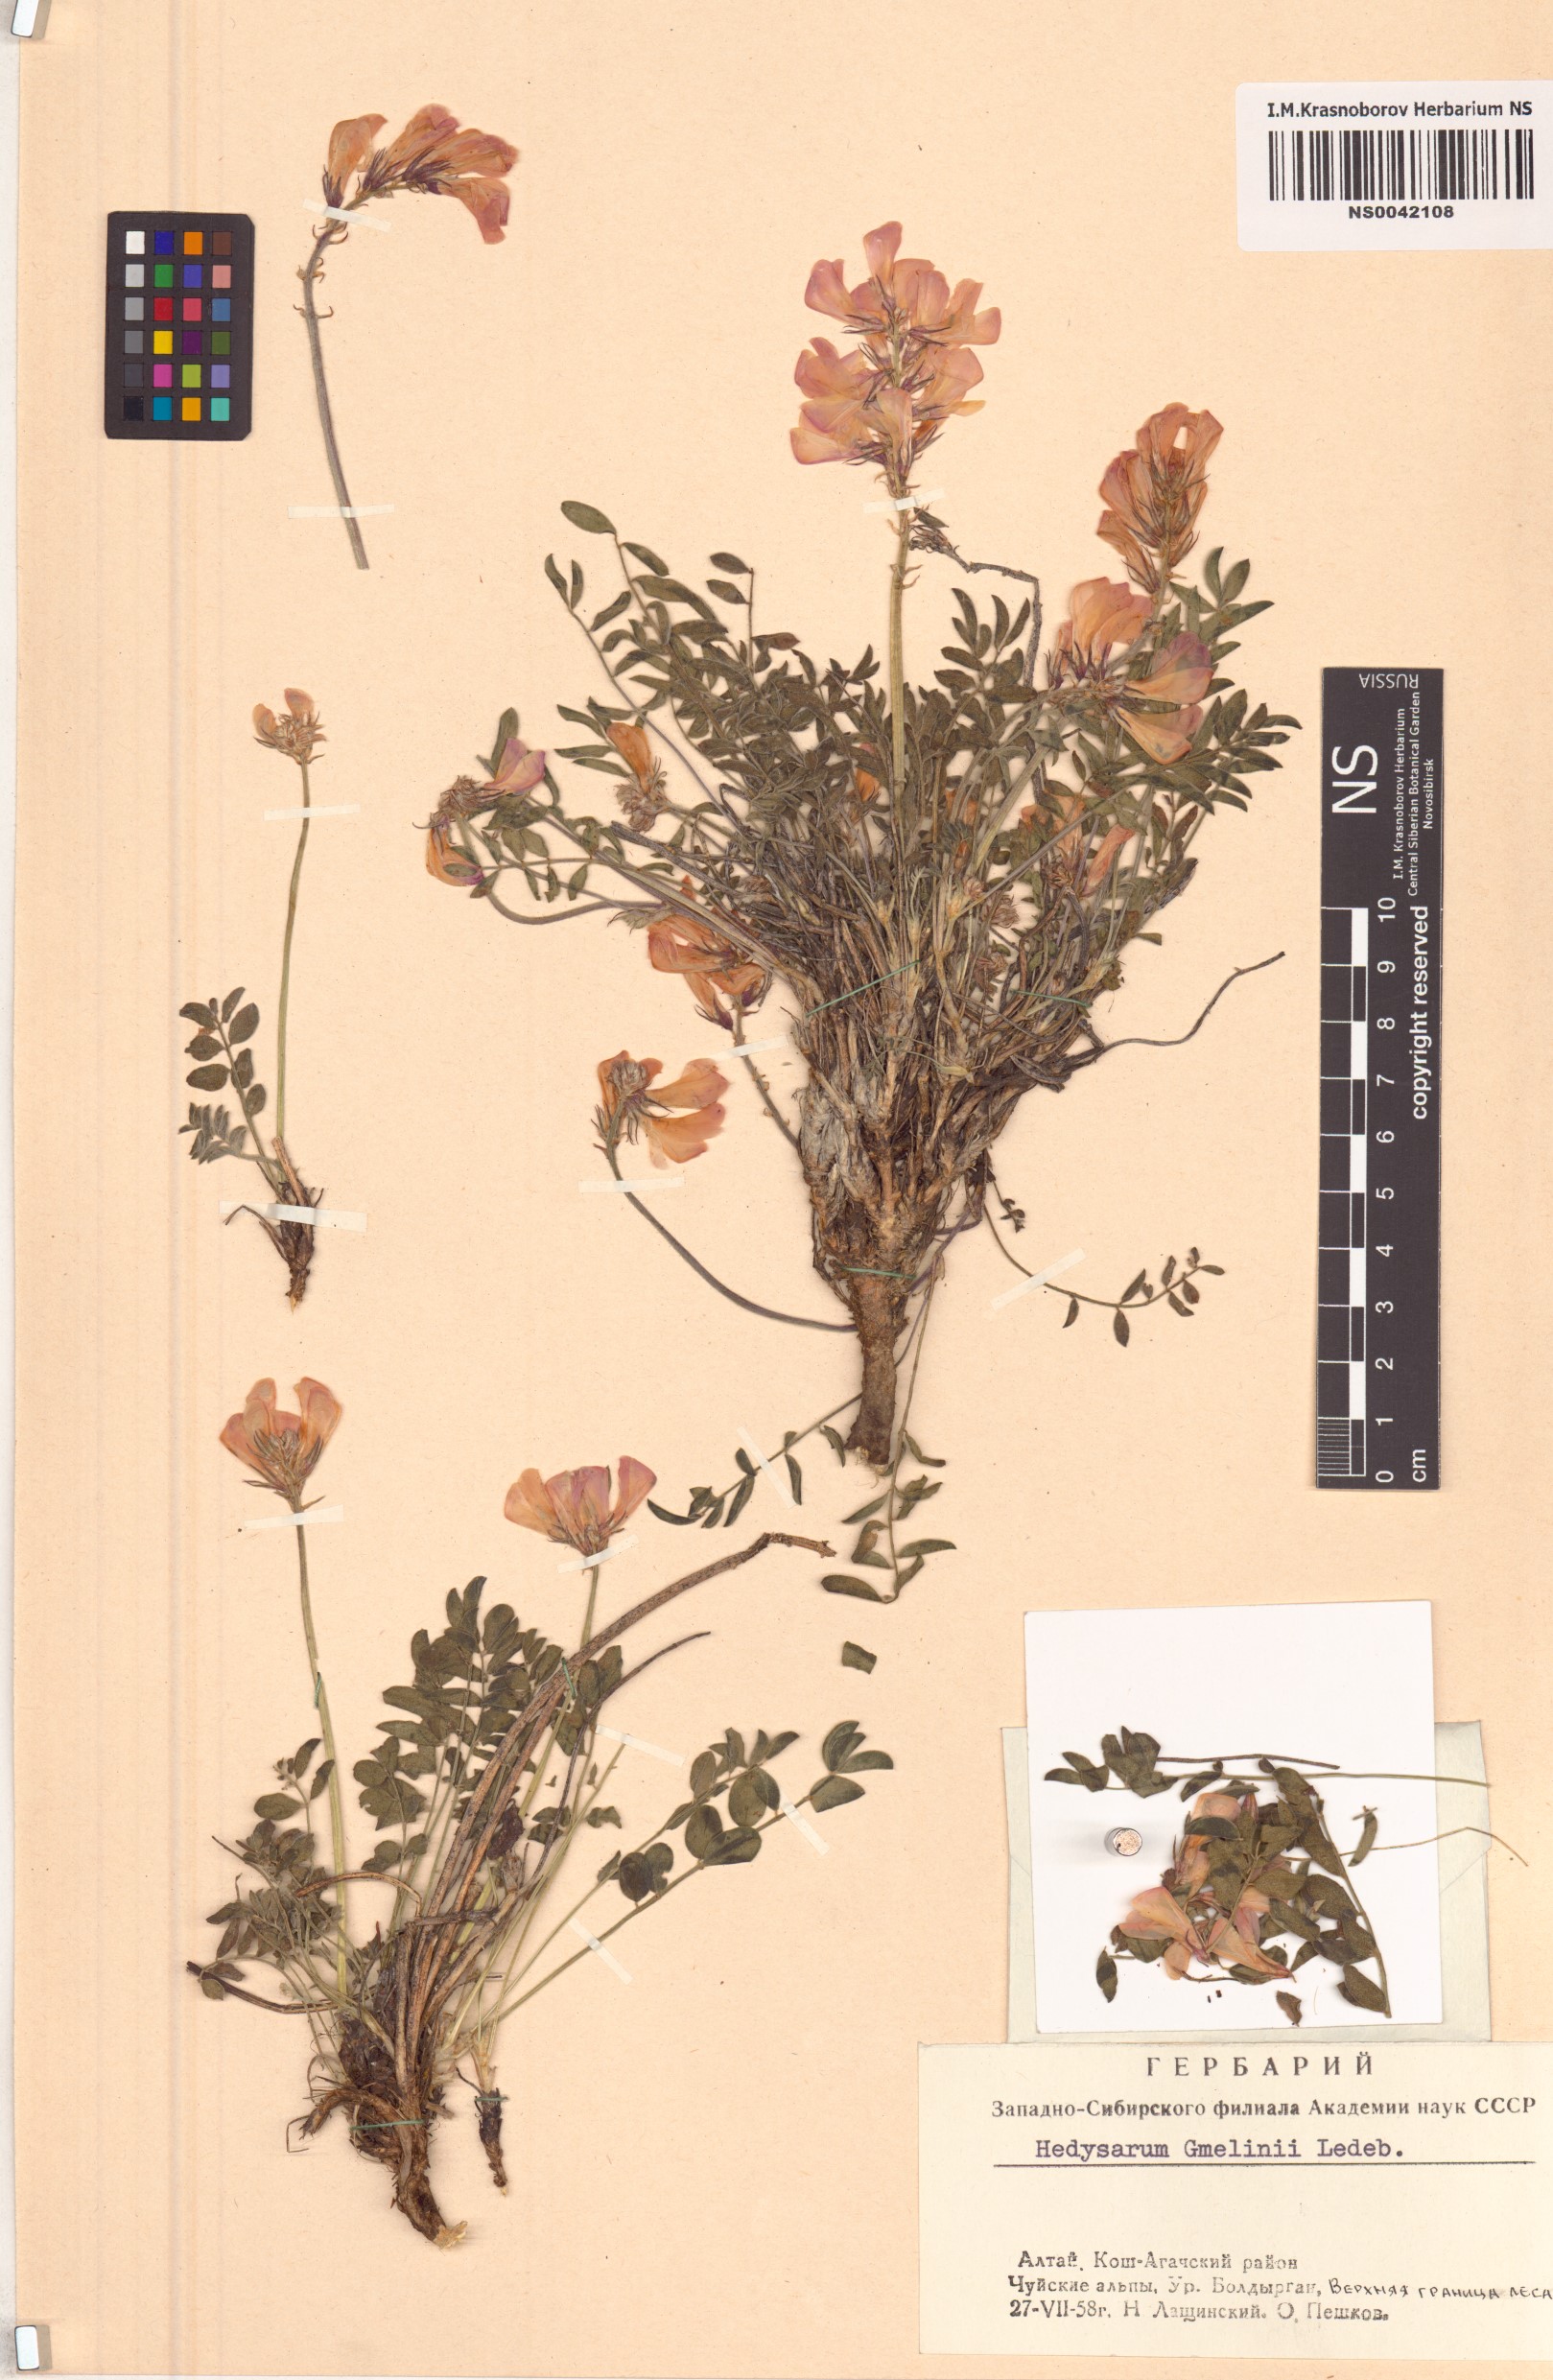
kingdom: Plantae
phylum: Tracheophyta
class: Magnoliopsida
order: Fabales
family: Fabaceae
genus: Hedysarum
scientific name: Hedysarum gmelinii
